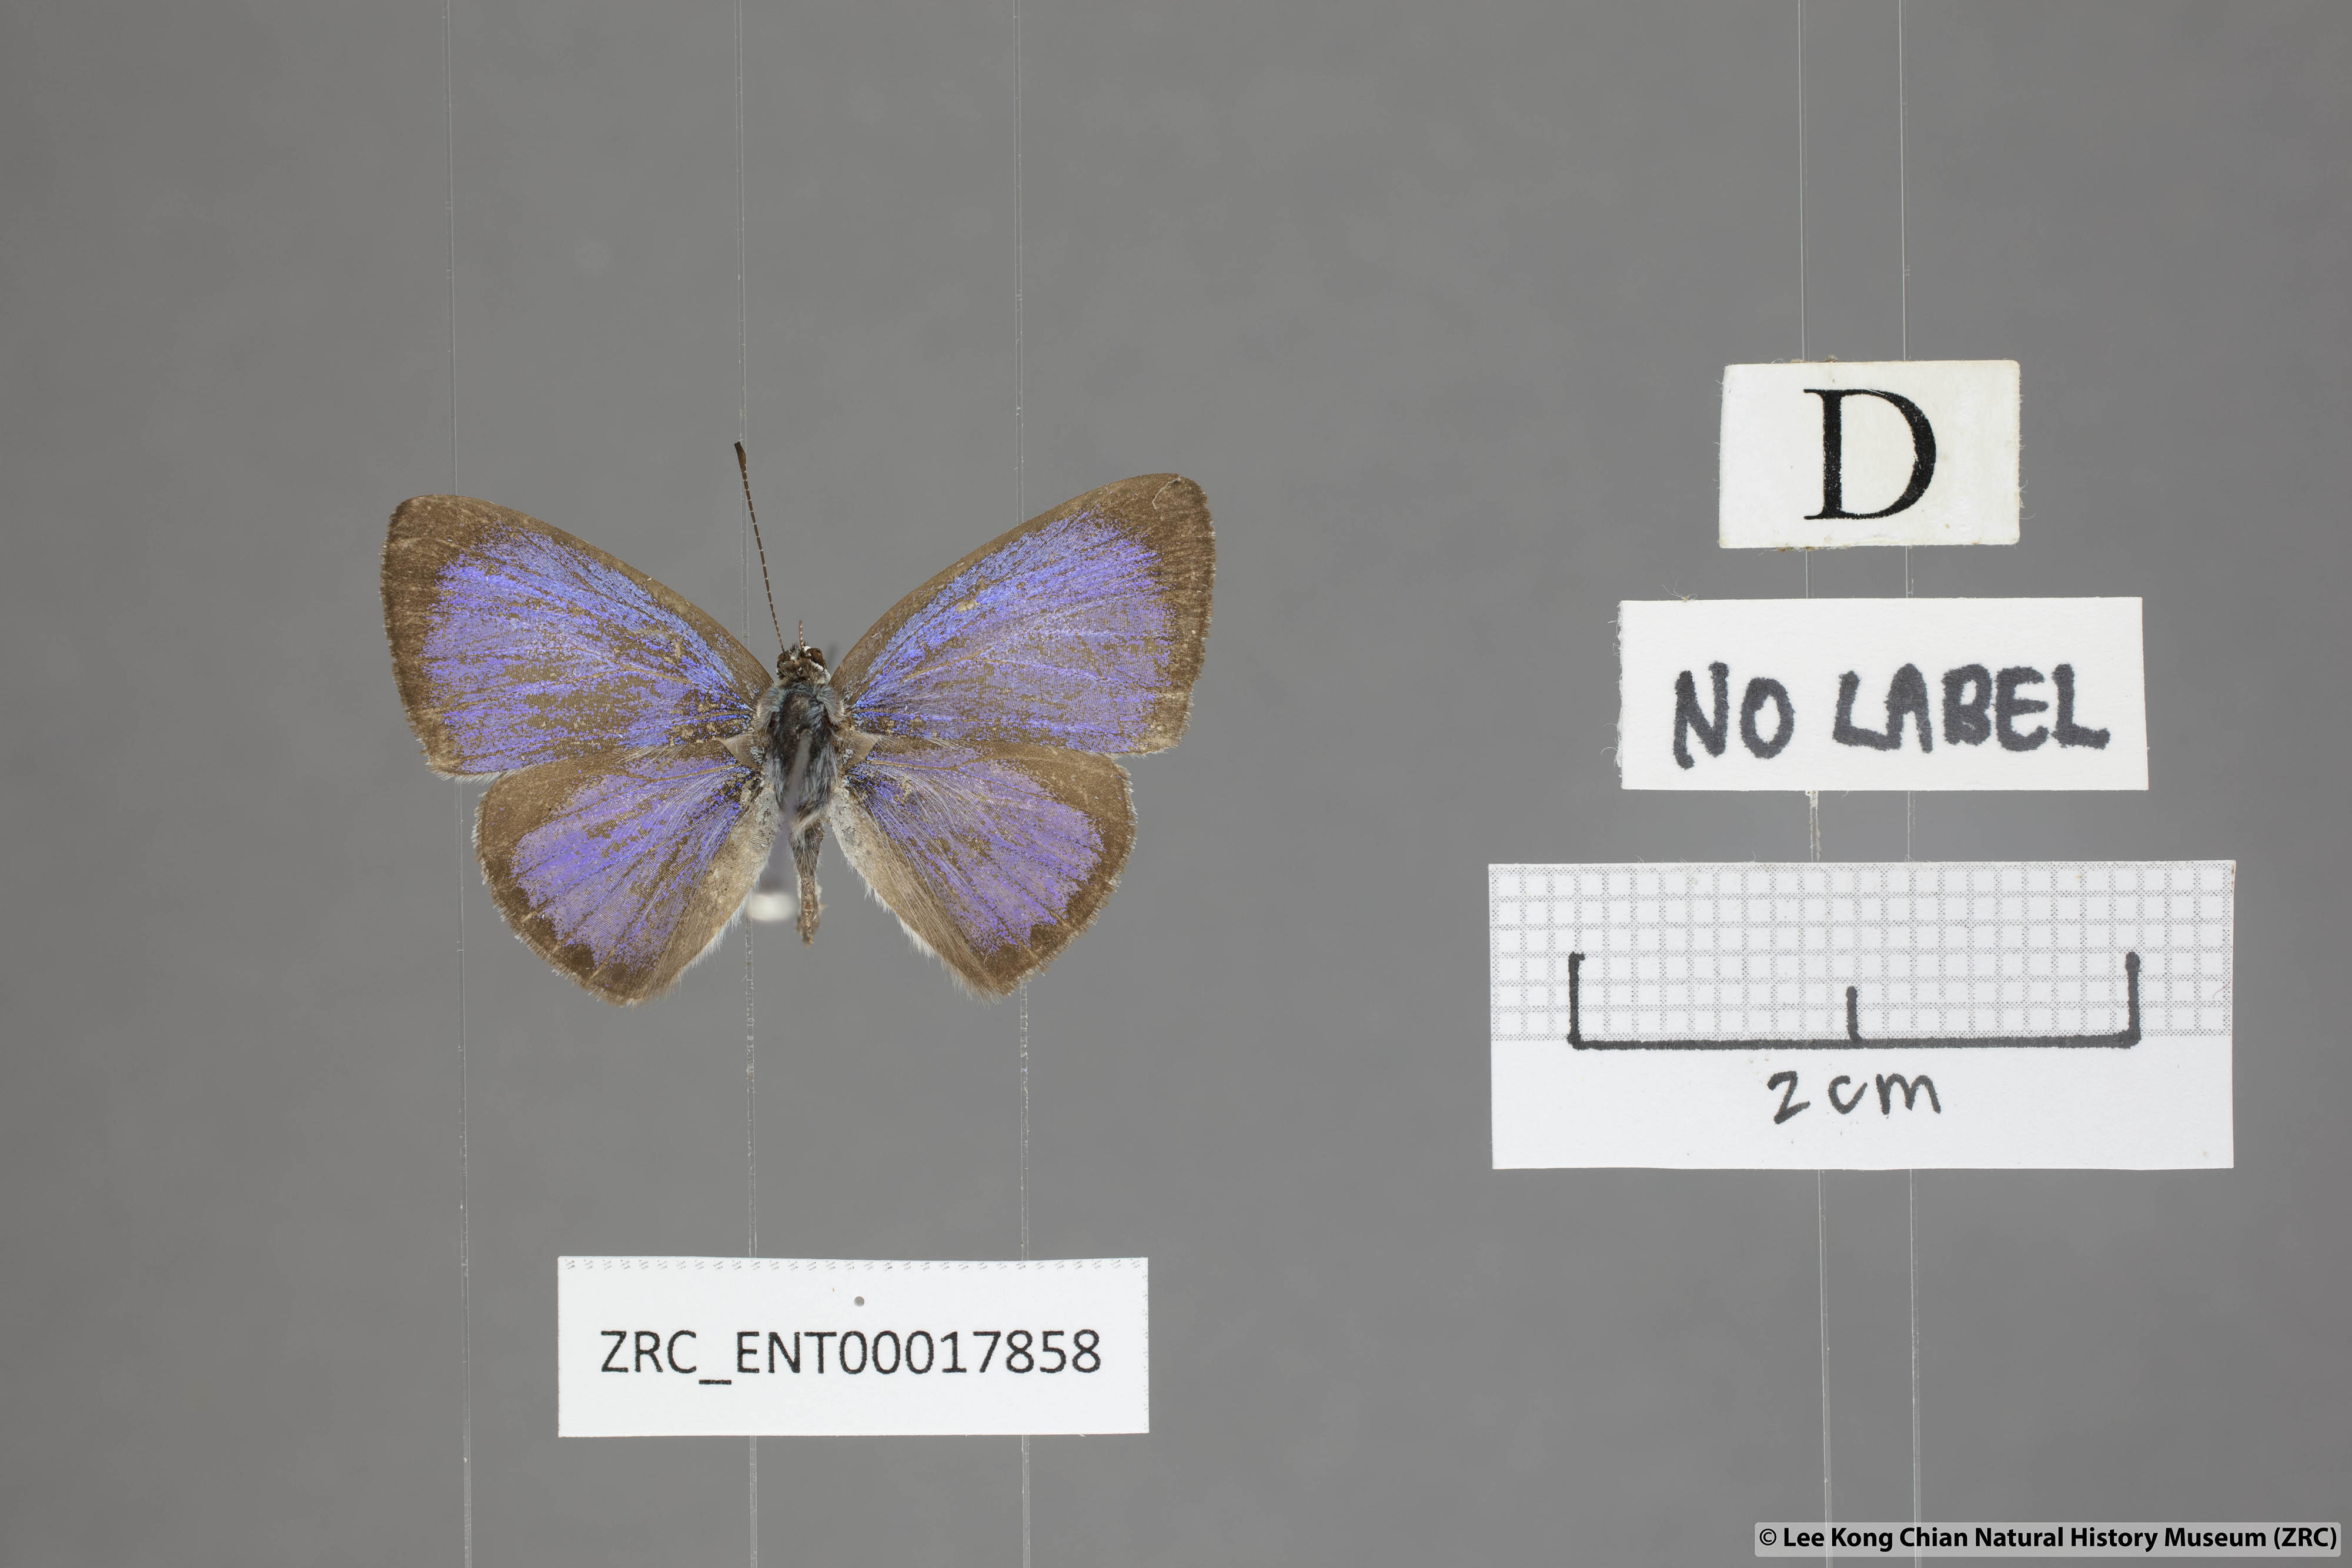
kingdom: Animalia
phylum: Arthropoda
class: Insecta
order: Lepidoptera
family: Lycaenidae
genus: Acytolepis
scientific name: Acytolepis puspa
